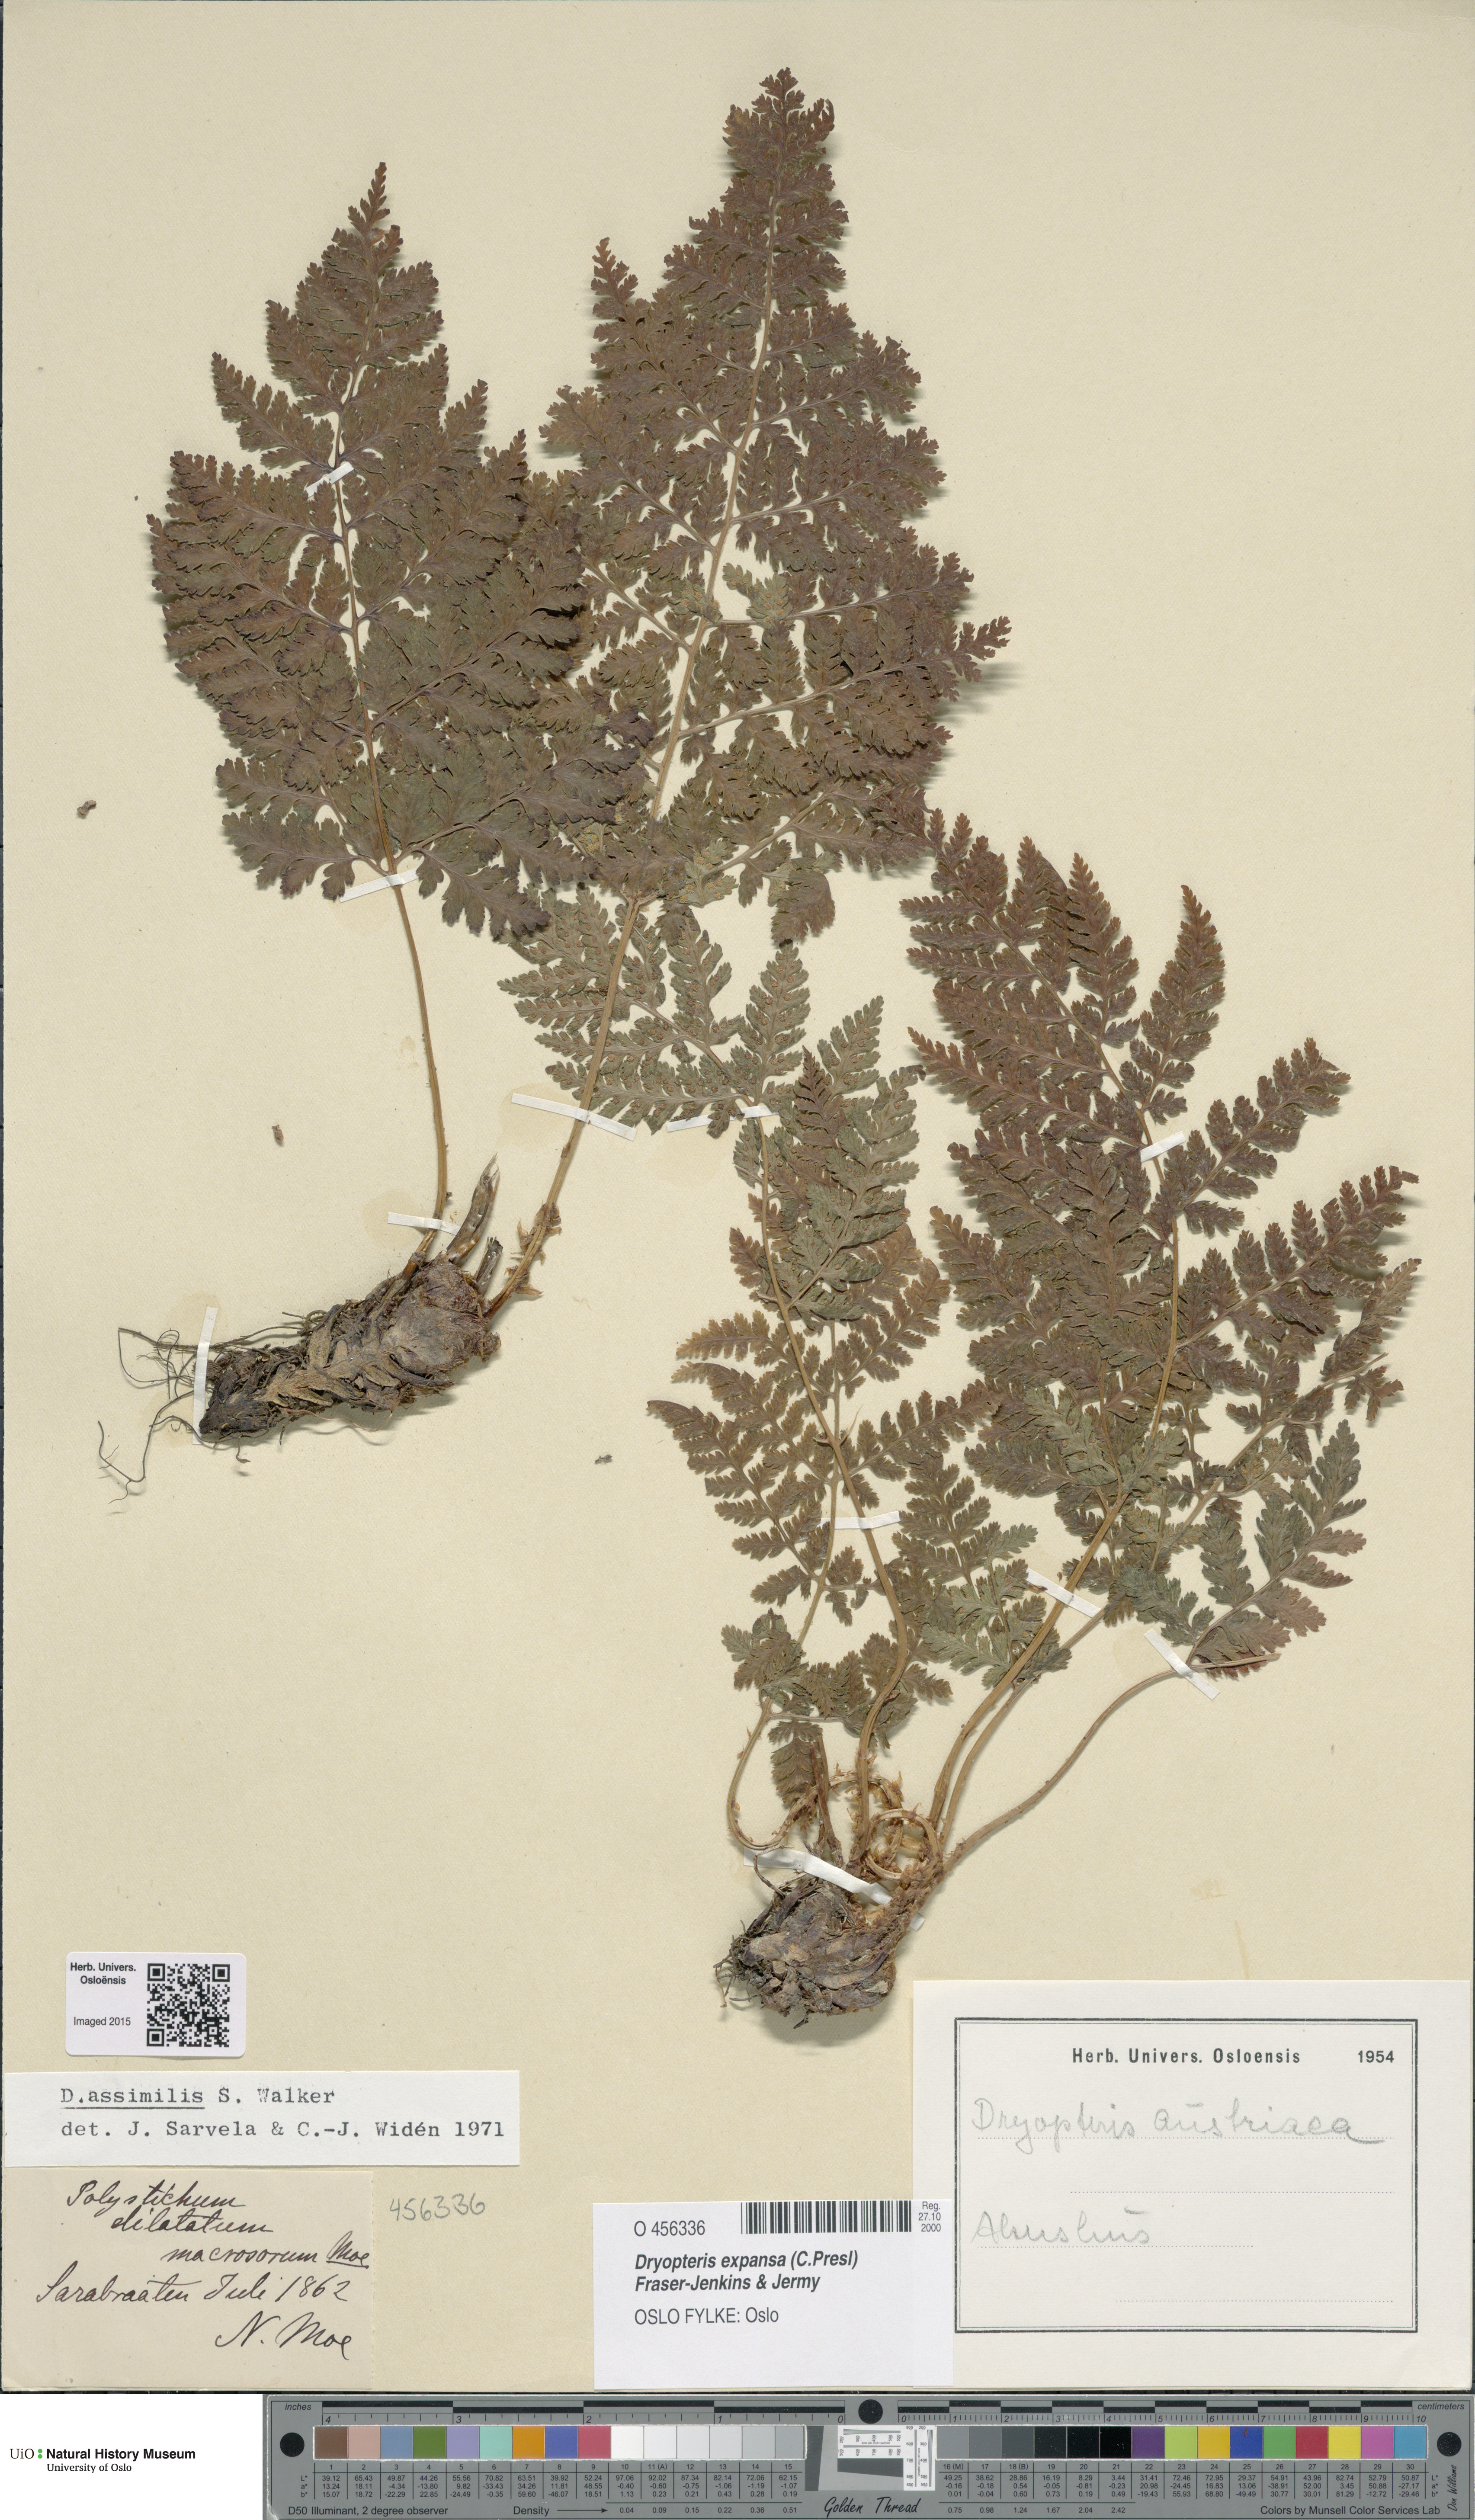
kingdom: Plantae
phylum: Tracheophyta
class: Polypodiopsida
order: Polypodiales
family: Dryopteridaceae
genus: Dryopteris
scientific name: Dryopteris expansa
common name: Northern buckler fern
